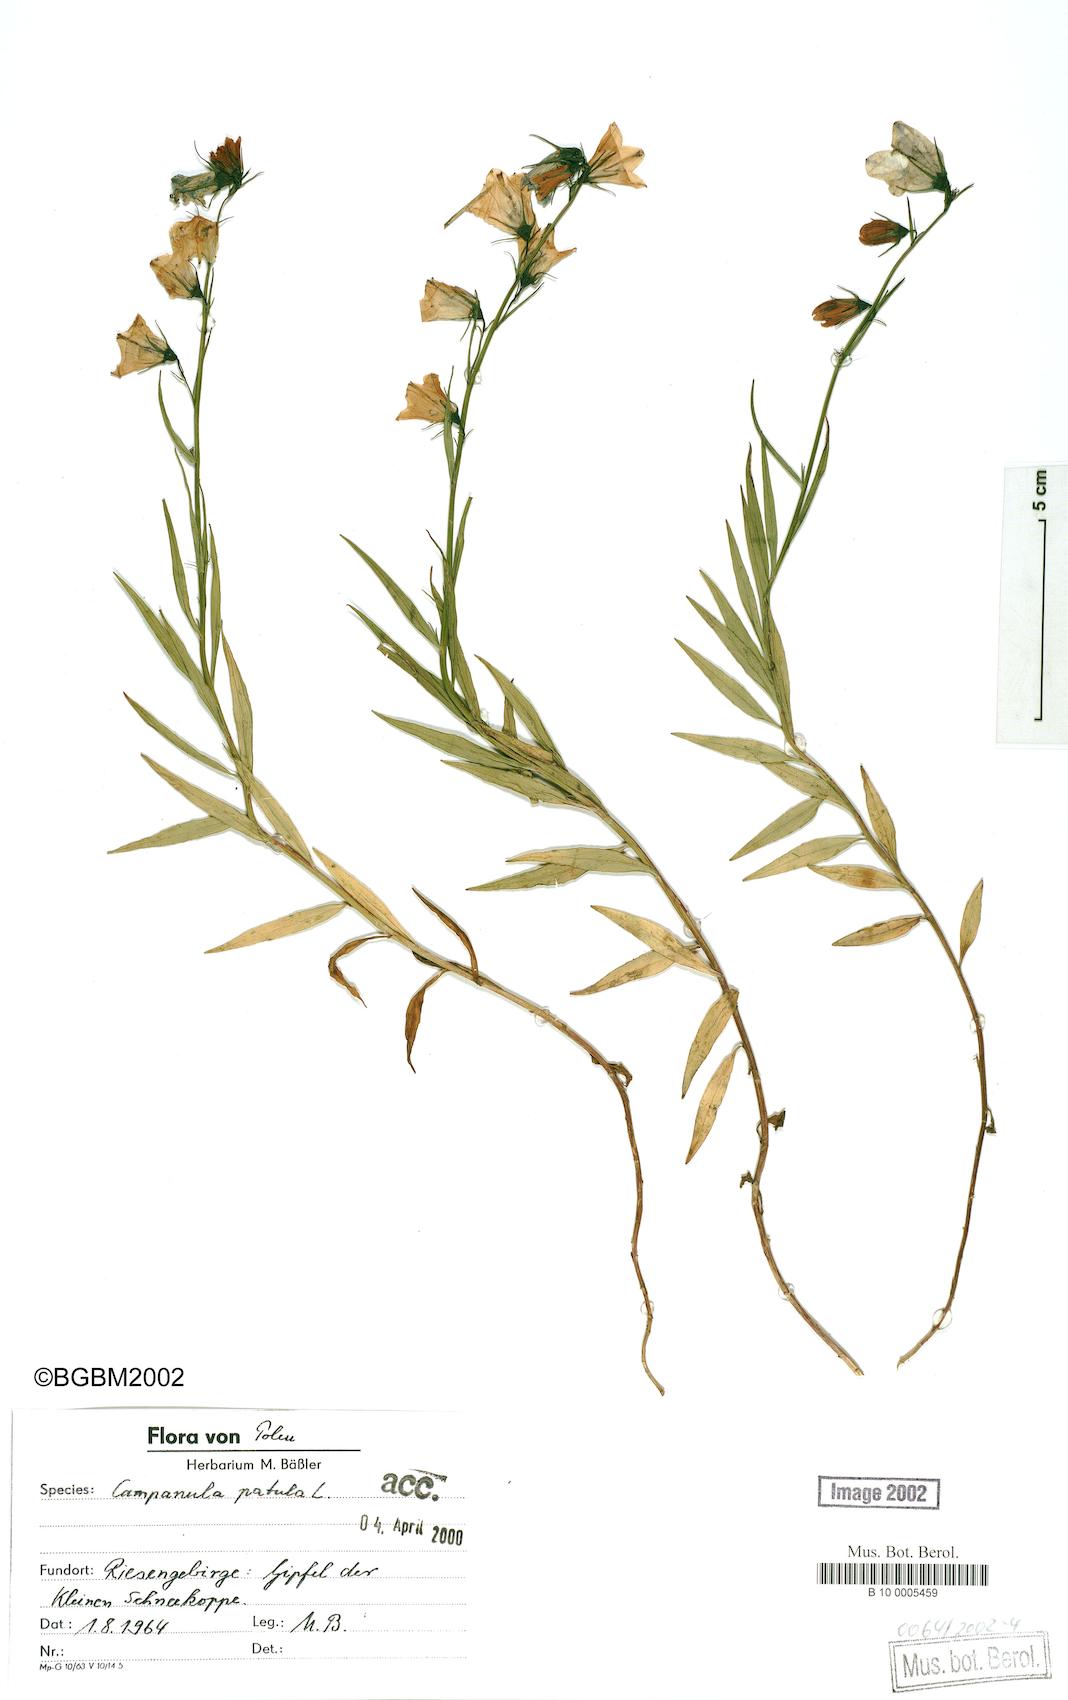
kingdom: Plantae
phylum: Tracheophyta
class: Magnoliopsida
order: Asterales
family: Campanulaceae
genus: Campanula
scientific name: Campanula patula
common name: Spreading bellflower
